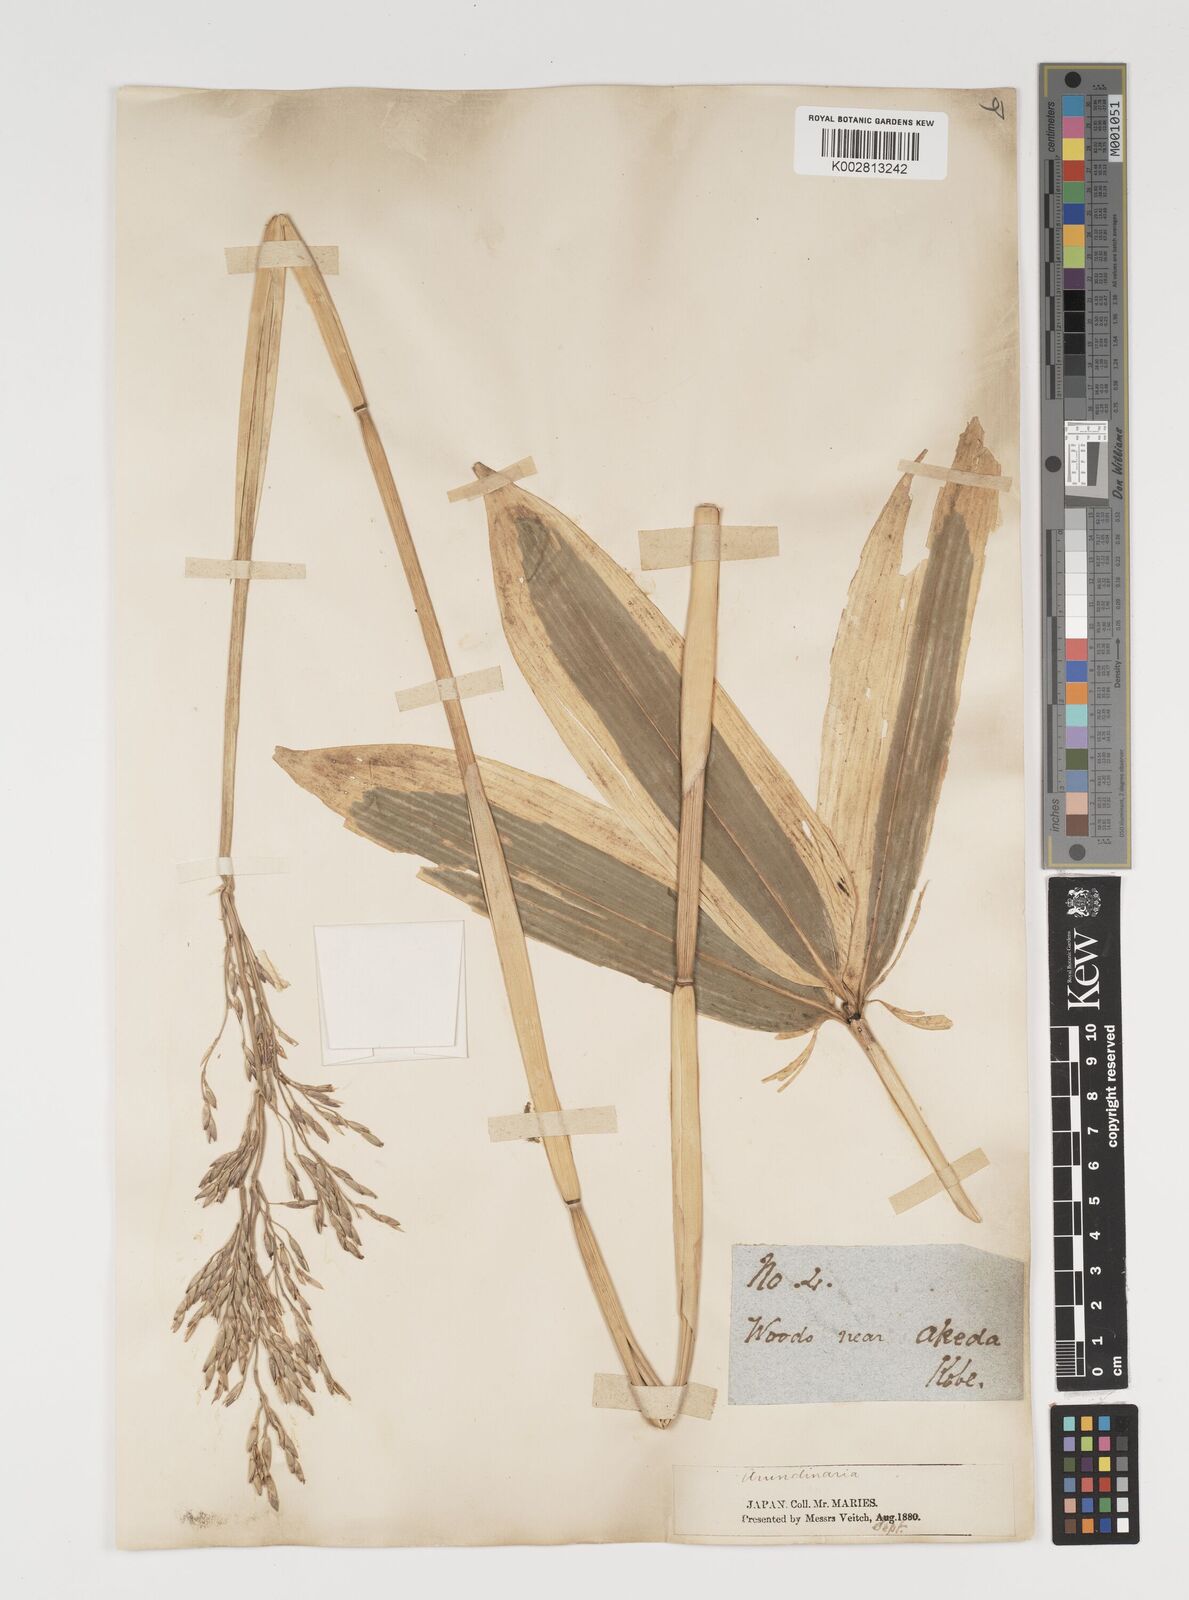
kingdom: Plantae
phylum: Tracheophyta
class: Liliopsida
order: Poales
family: Poaceae
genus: Sasa
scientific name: Sasa veitchii
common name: Veitch's bamboo
